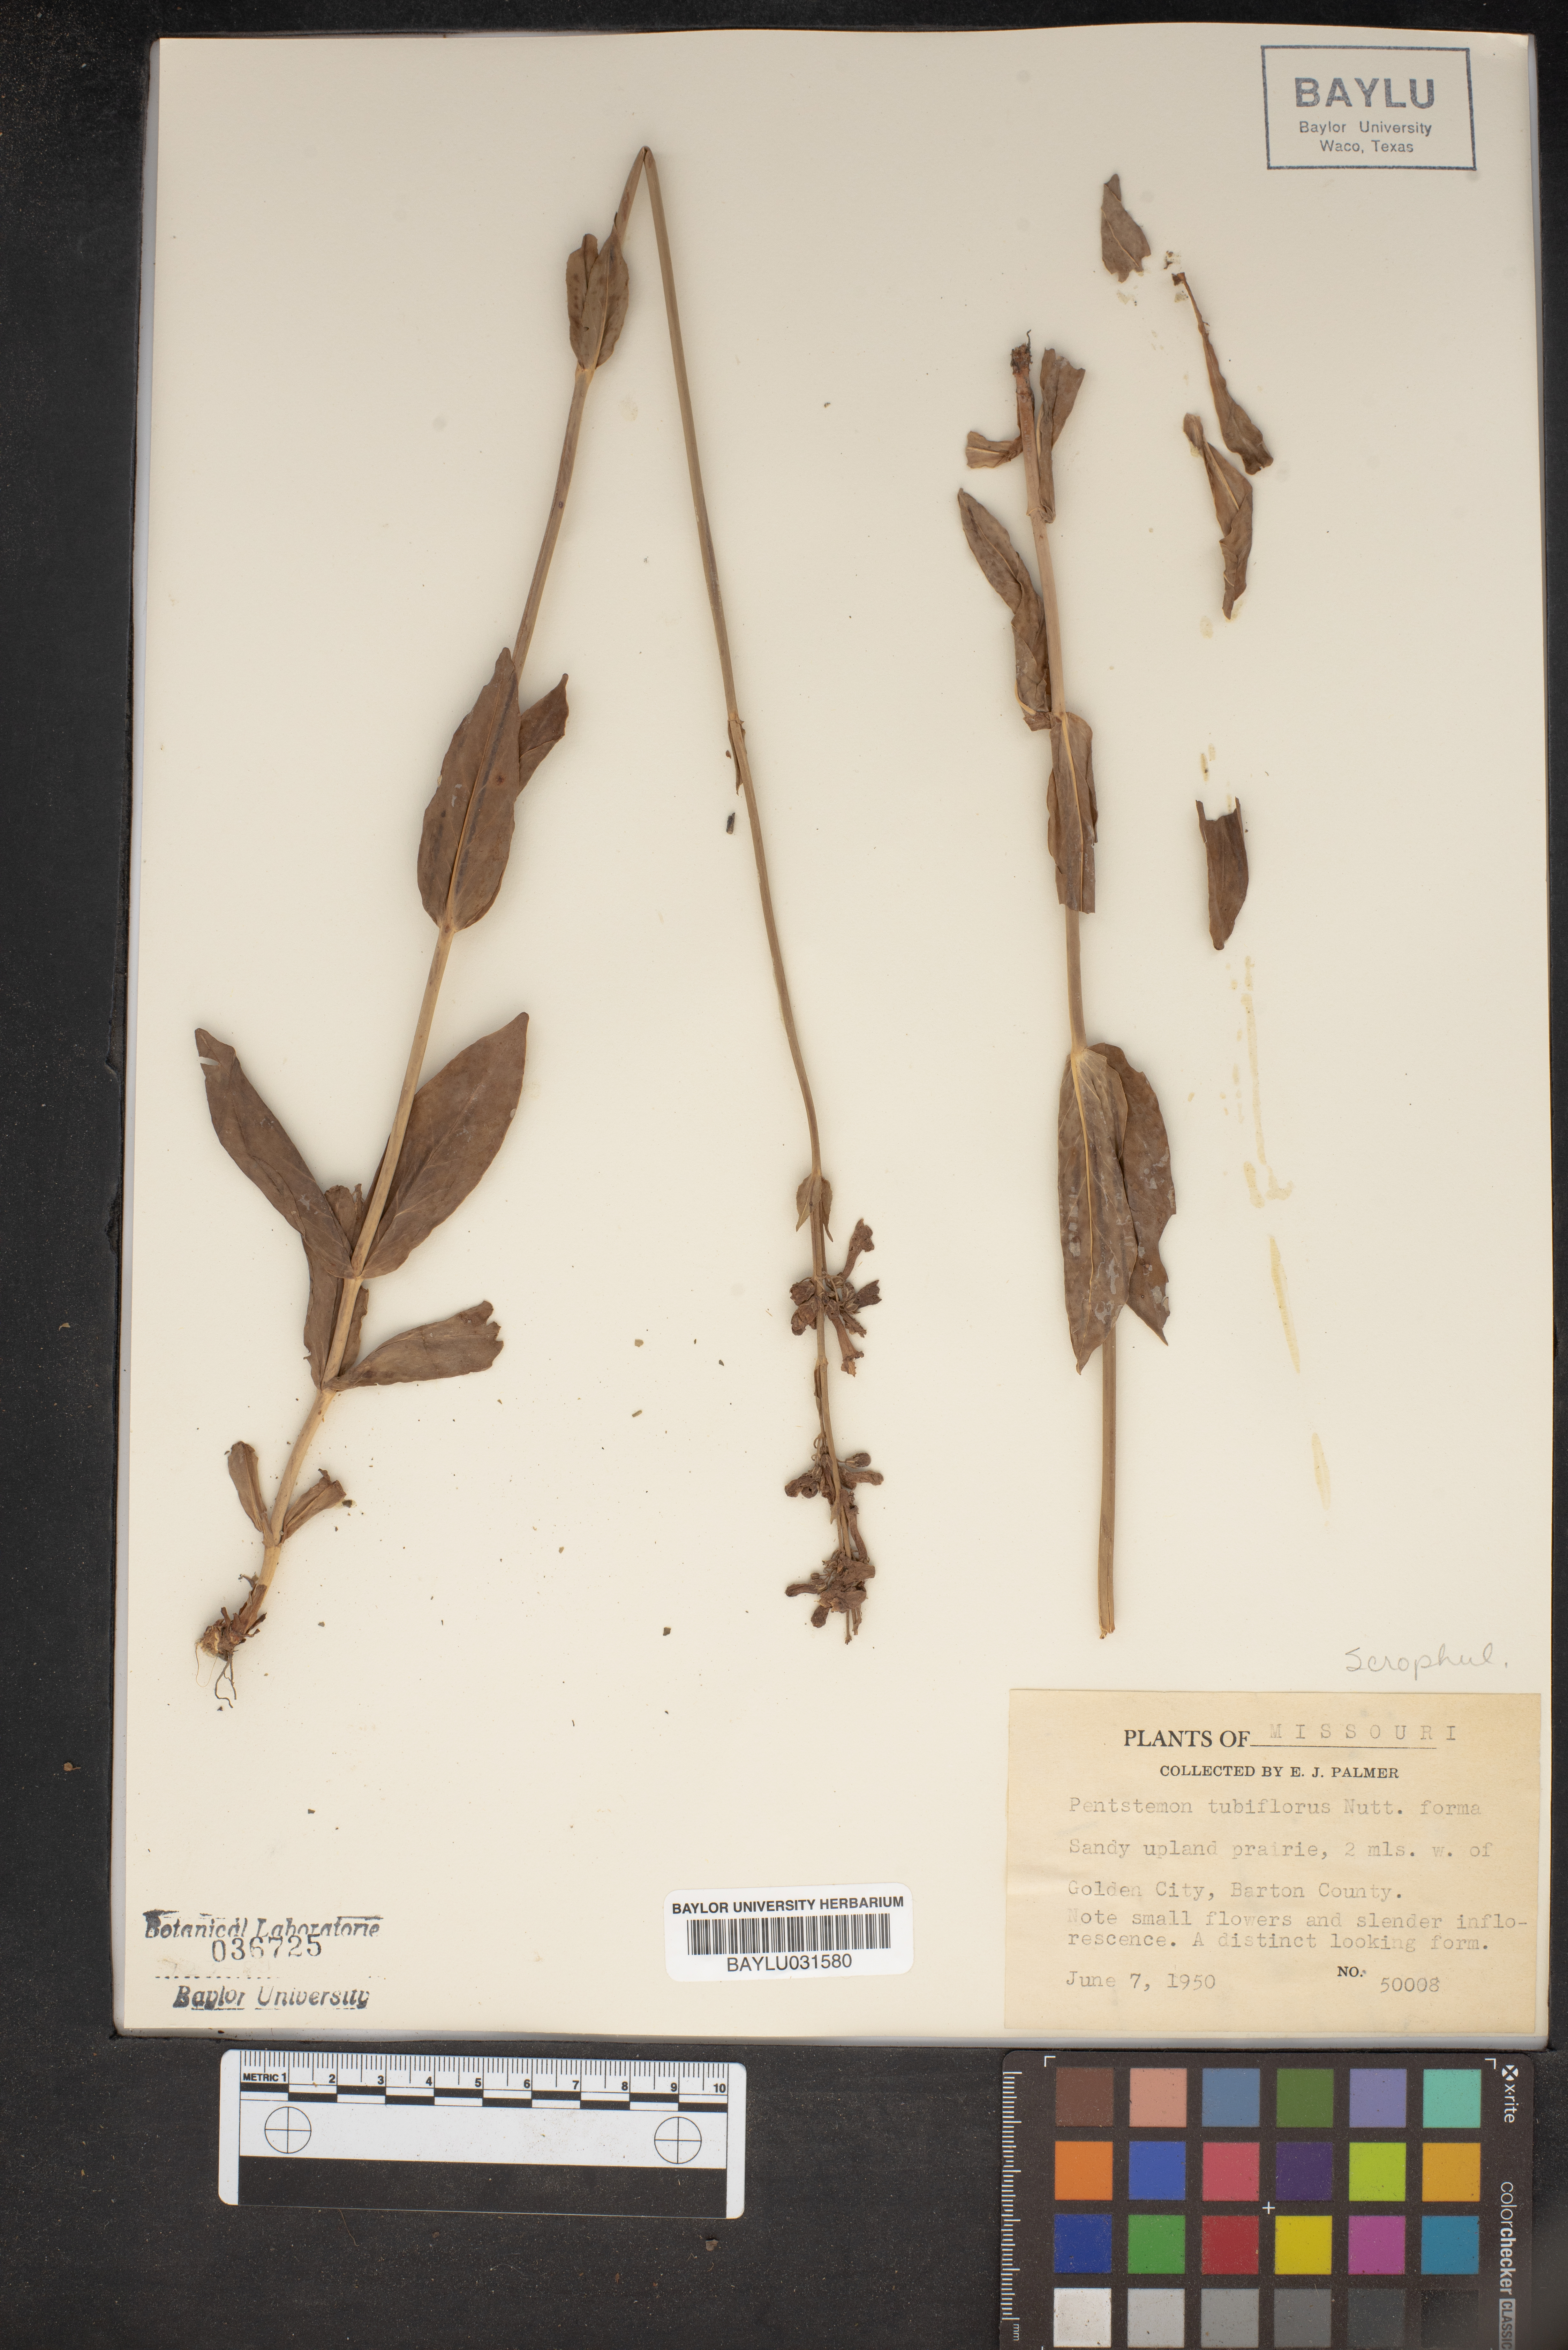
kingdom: Plantae
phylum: Tracheophyta
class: Magnoliopsida
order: Lamiales
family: Plantaginaceae
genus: Penstemon
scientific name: Penstemon
